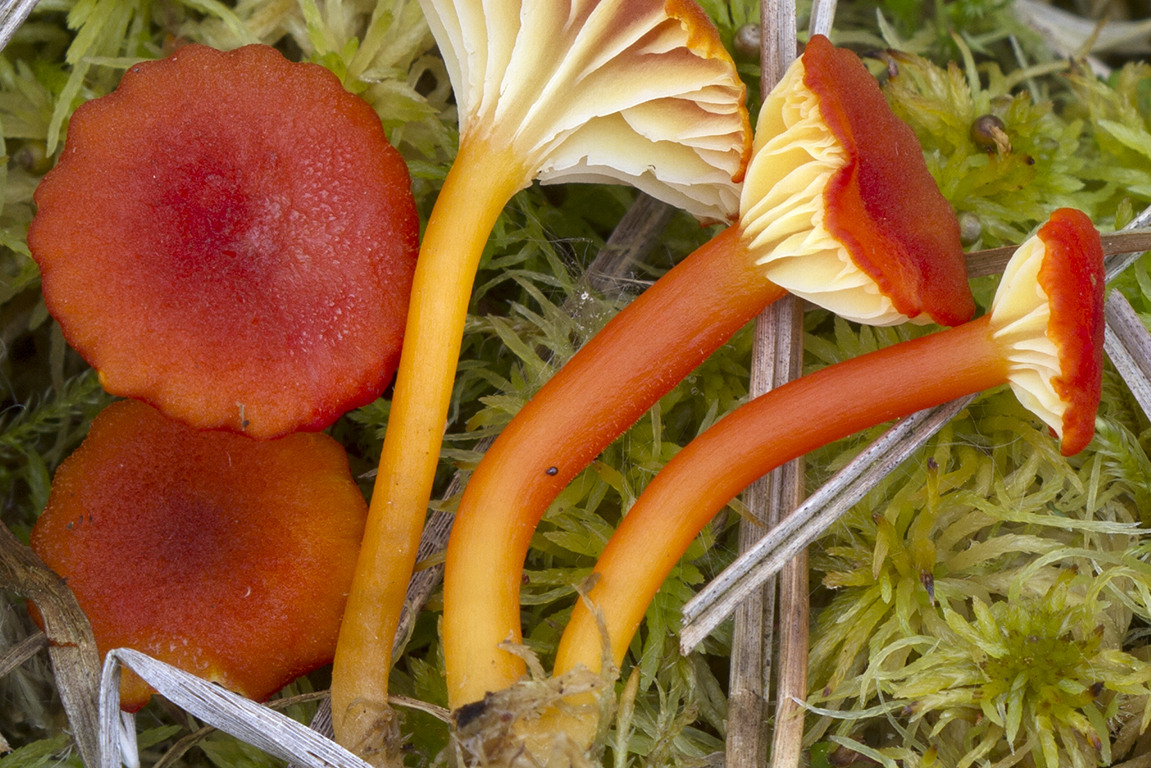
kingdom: Fungi
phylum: Basidiomycota
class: Agaricomycetes
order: Agaricales
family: Hygrophoraceae
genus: Hygrocybe
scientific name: Hygrocybe coccineocrenata
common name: tørvemos-vokshat
